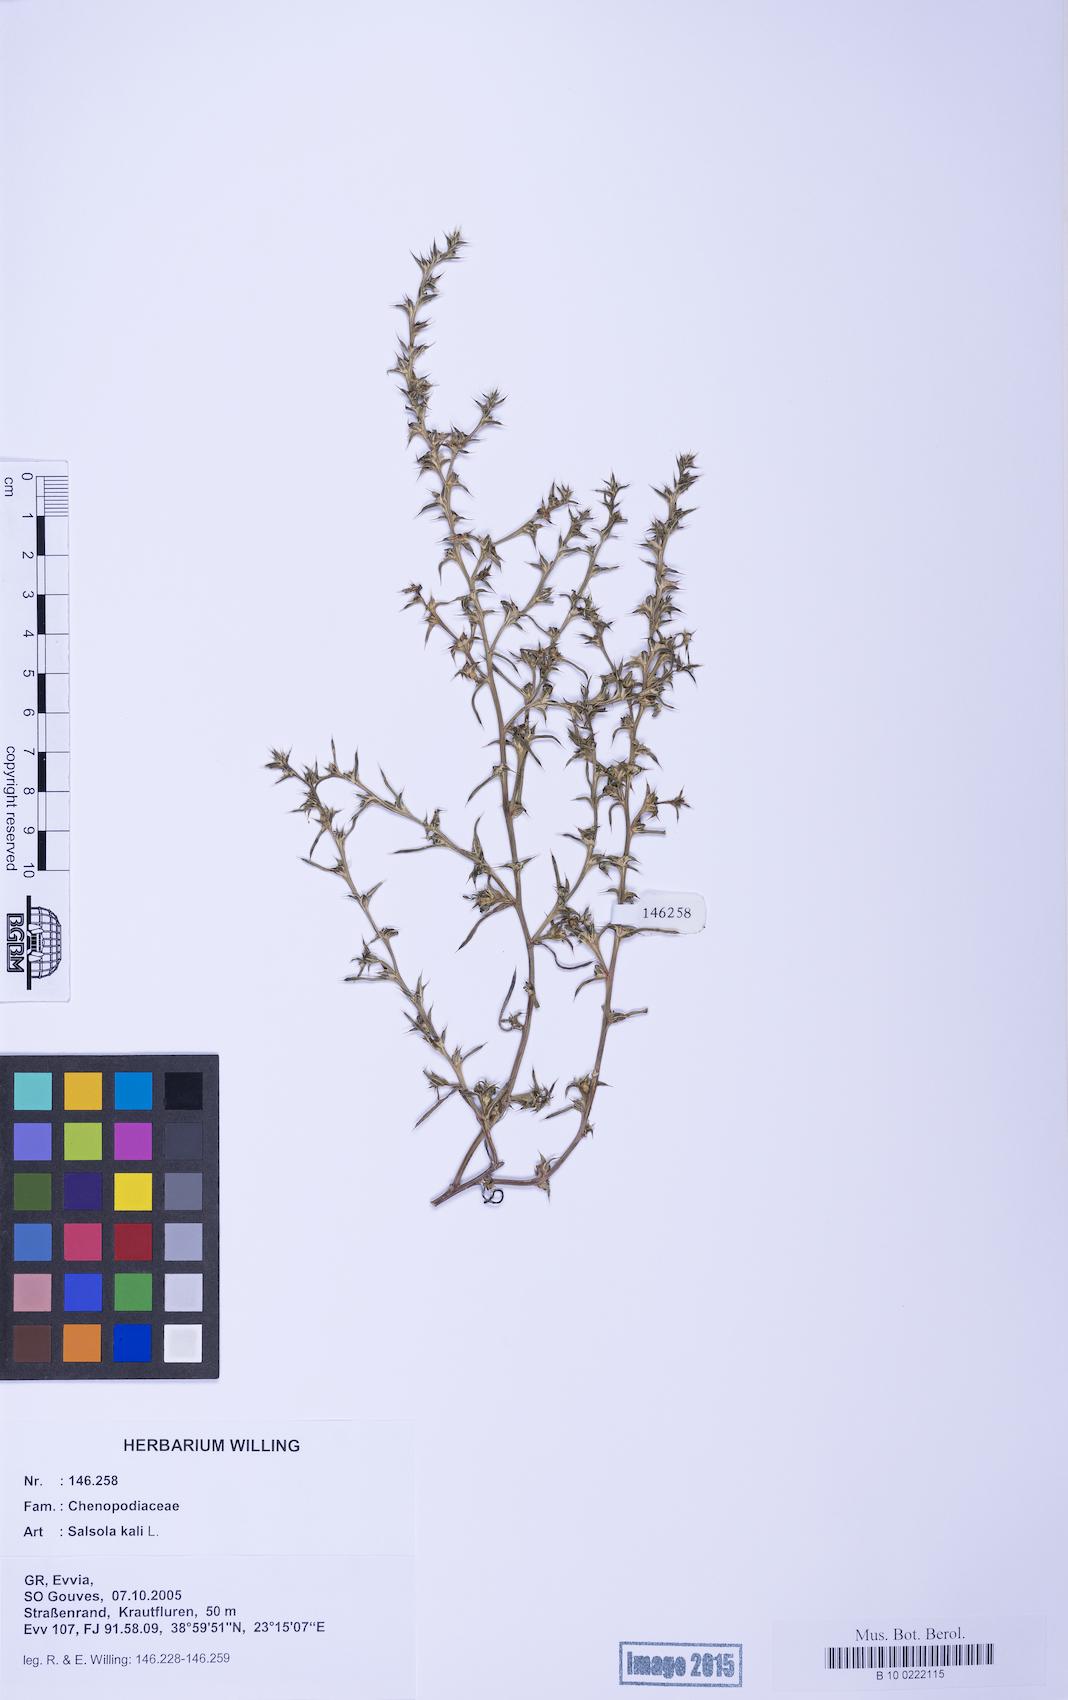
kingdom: Plantae
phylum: Tracheophyta
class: Magnoliopsida
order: Caryophyllales
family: Amaranthaceae
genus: Salsola
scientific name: Salsola kali
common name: Saltwort
